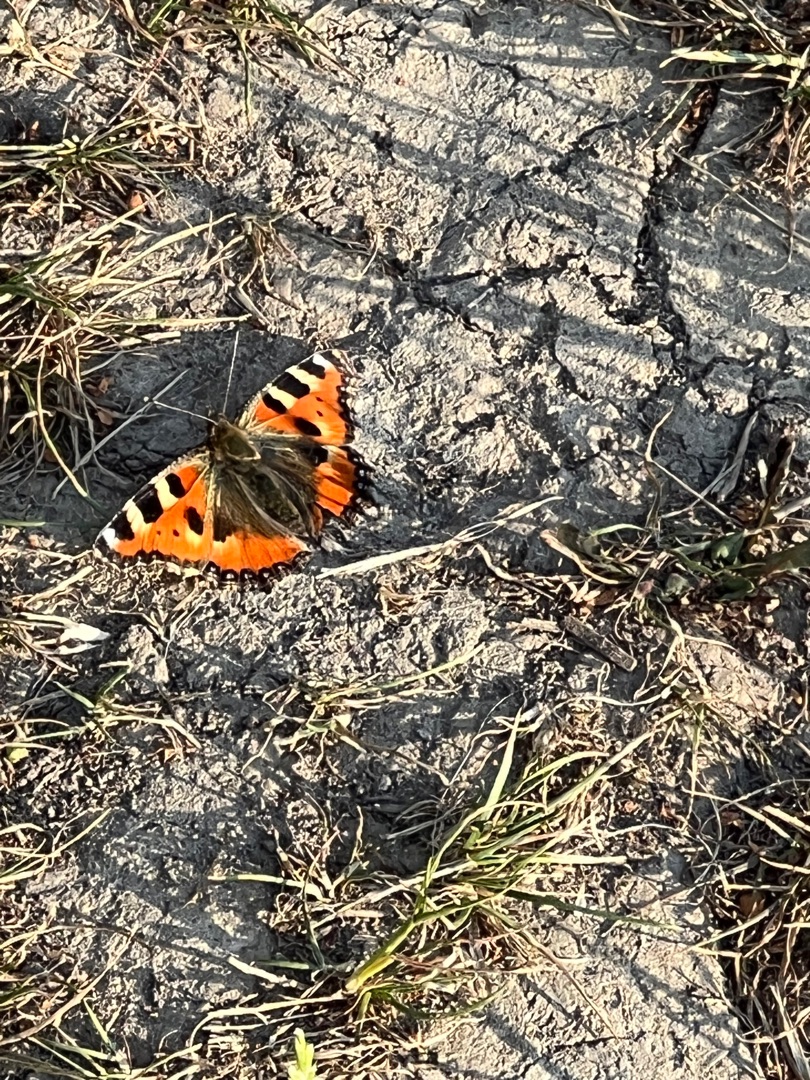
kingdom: Animalia
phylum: Arthropoda
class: Insecta
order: Lepidoptera
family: Nymphalidae
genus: Aglais
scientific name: Aglais urticae
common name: Nældens takvinge
